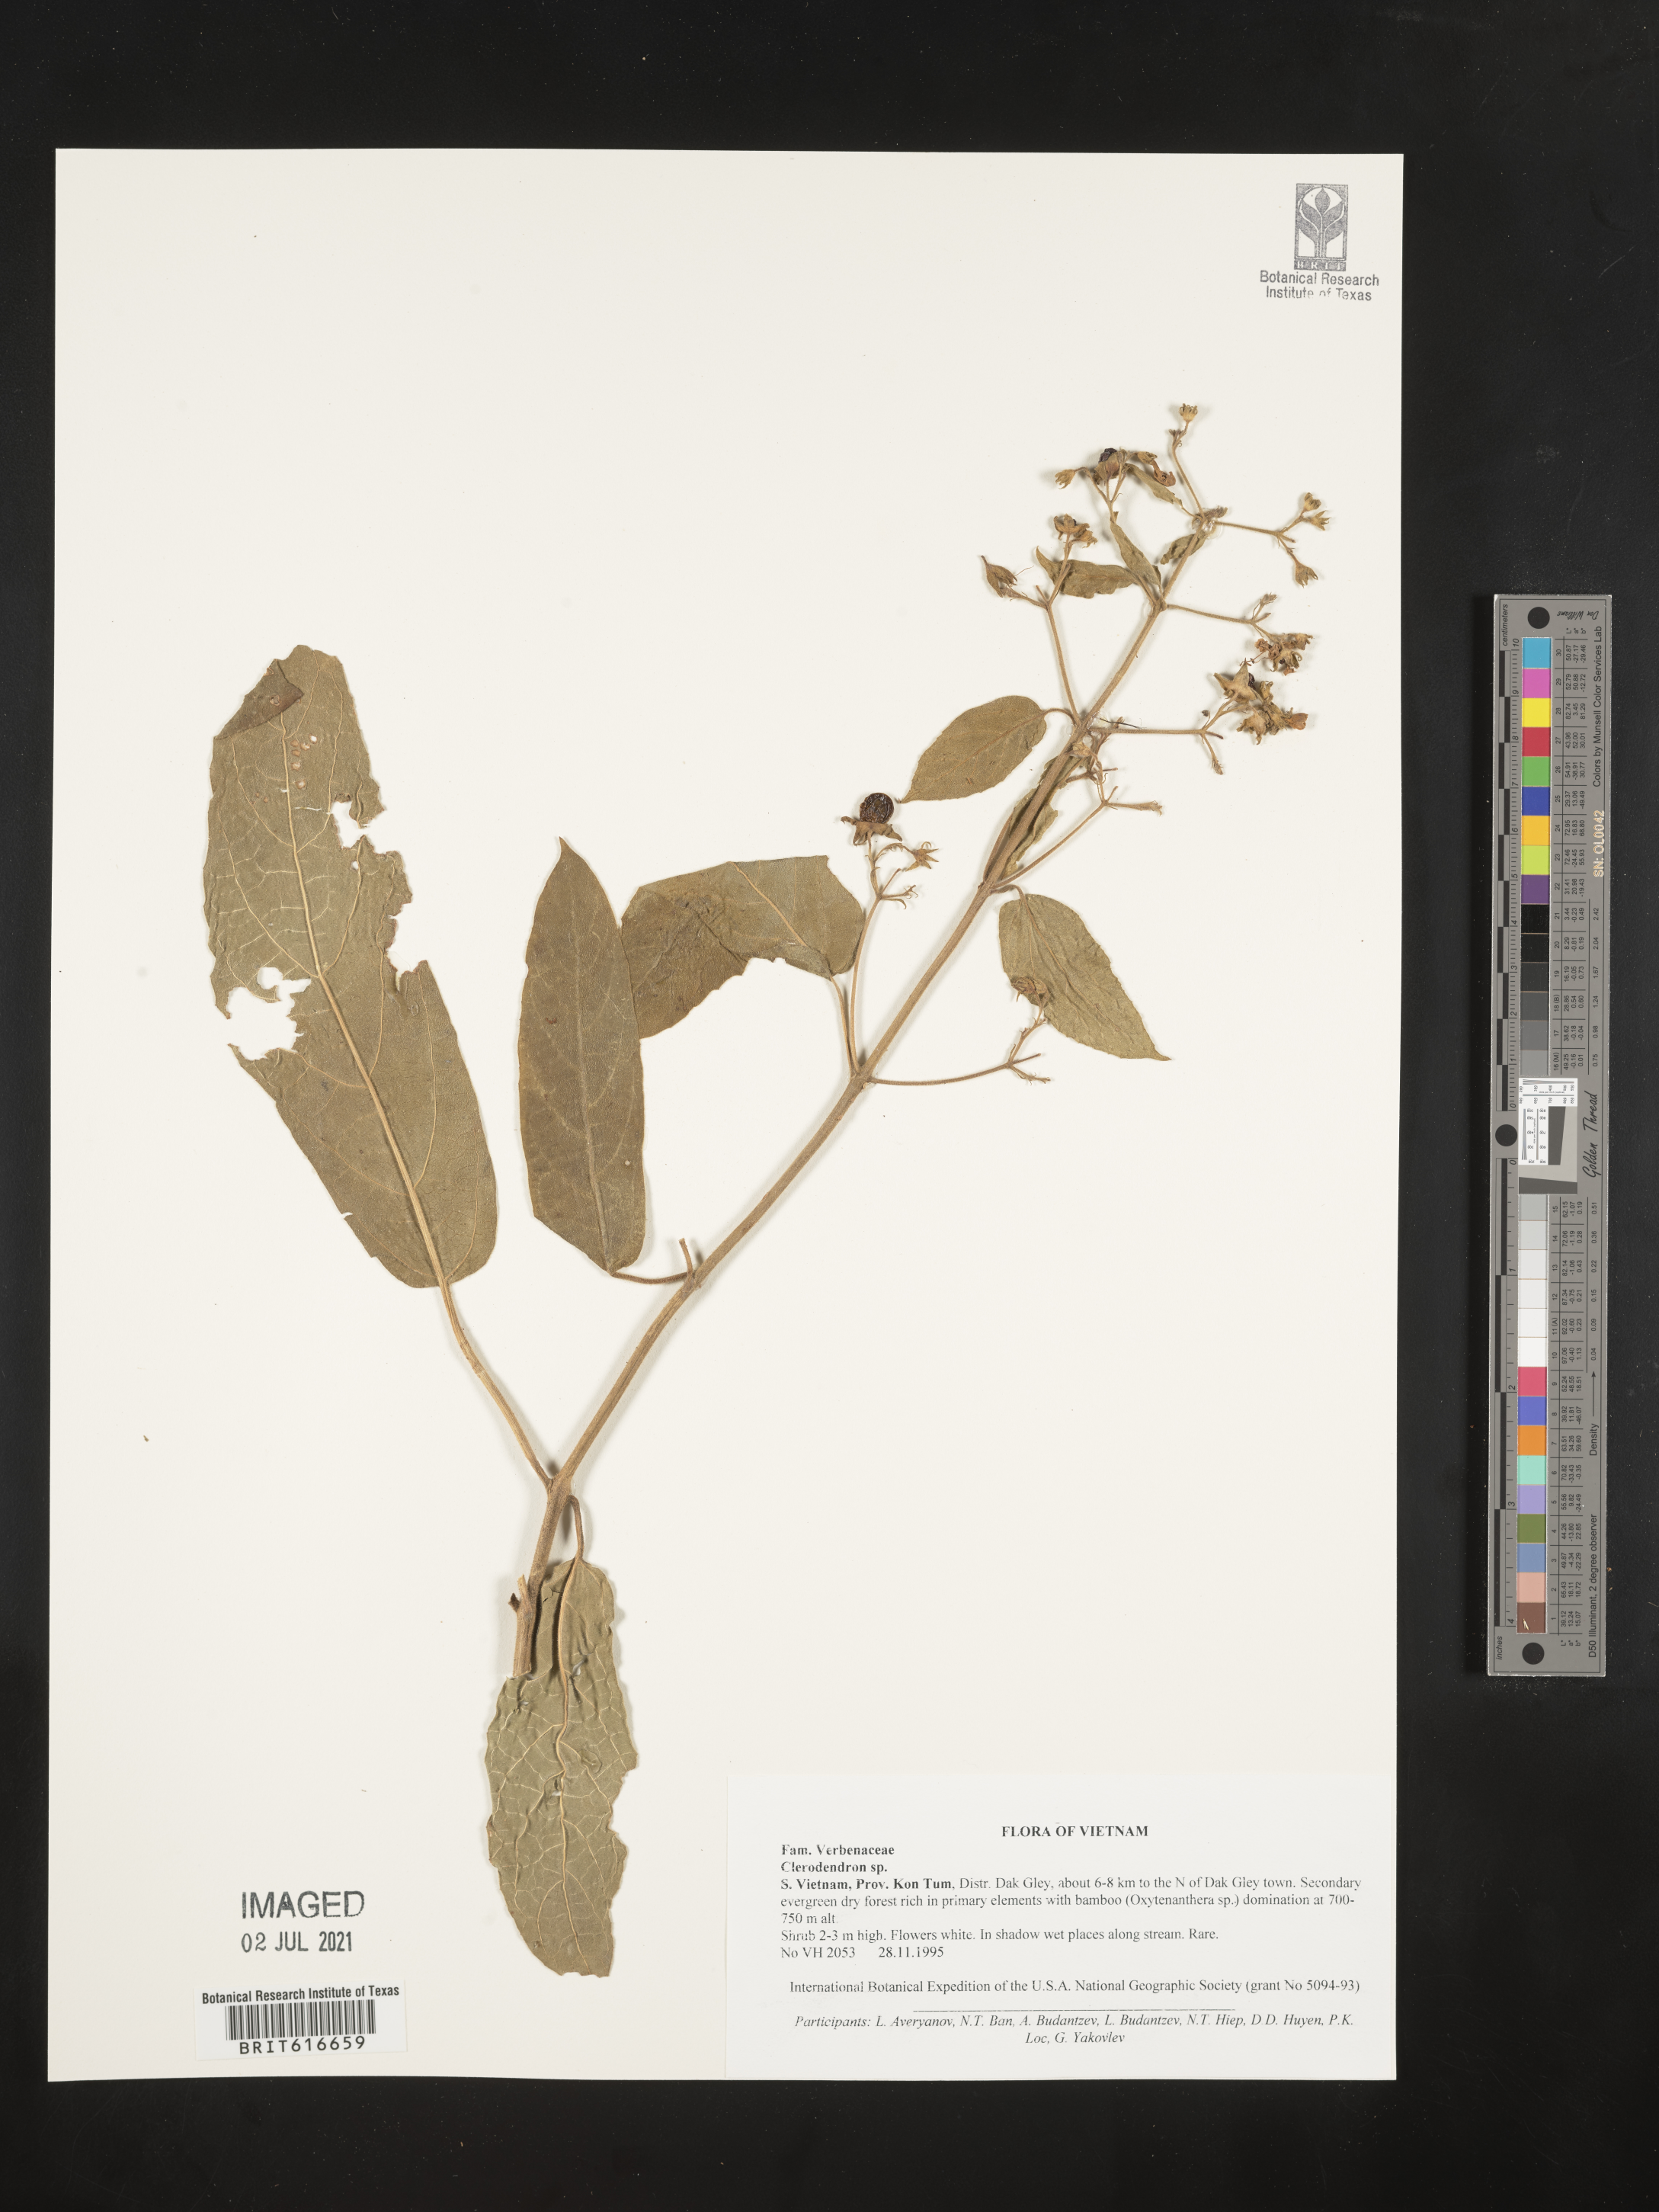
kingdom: Plantae
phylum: Tracheophyta
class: Magnoliopsida
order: Lamiales
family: Lamiaceae
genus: Clerodendrum
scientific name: Clerodendrum
